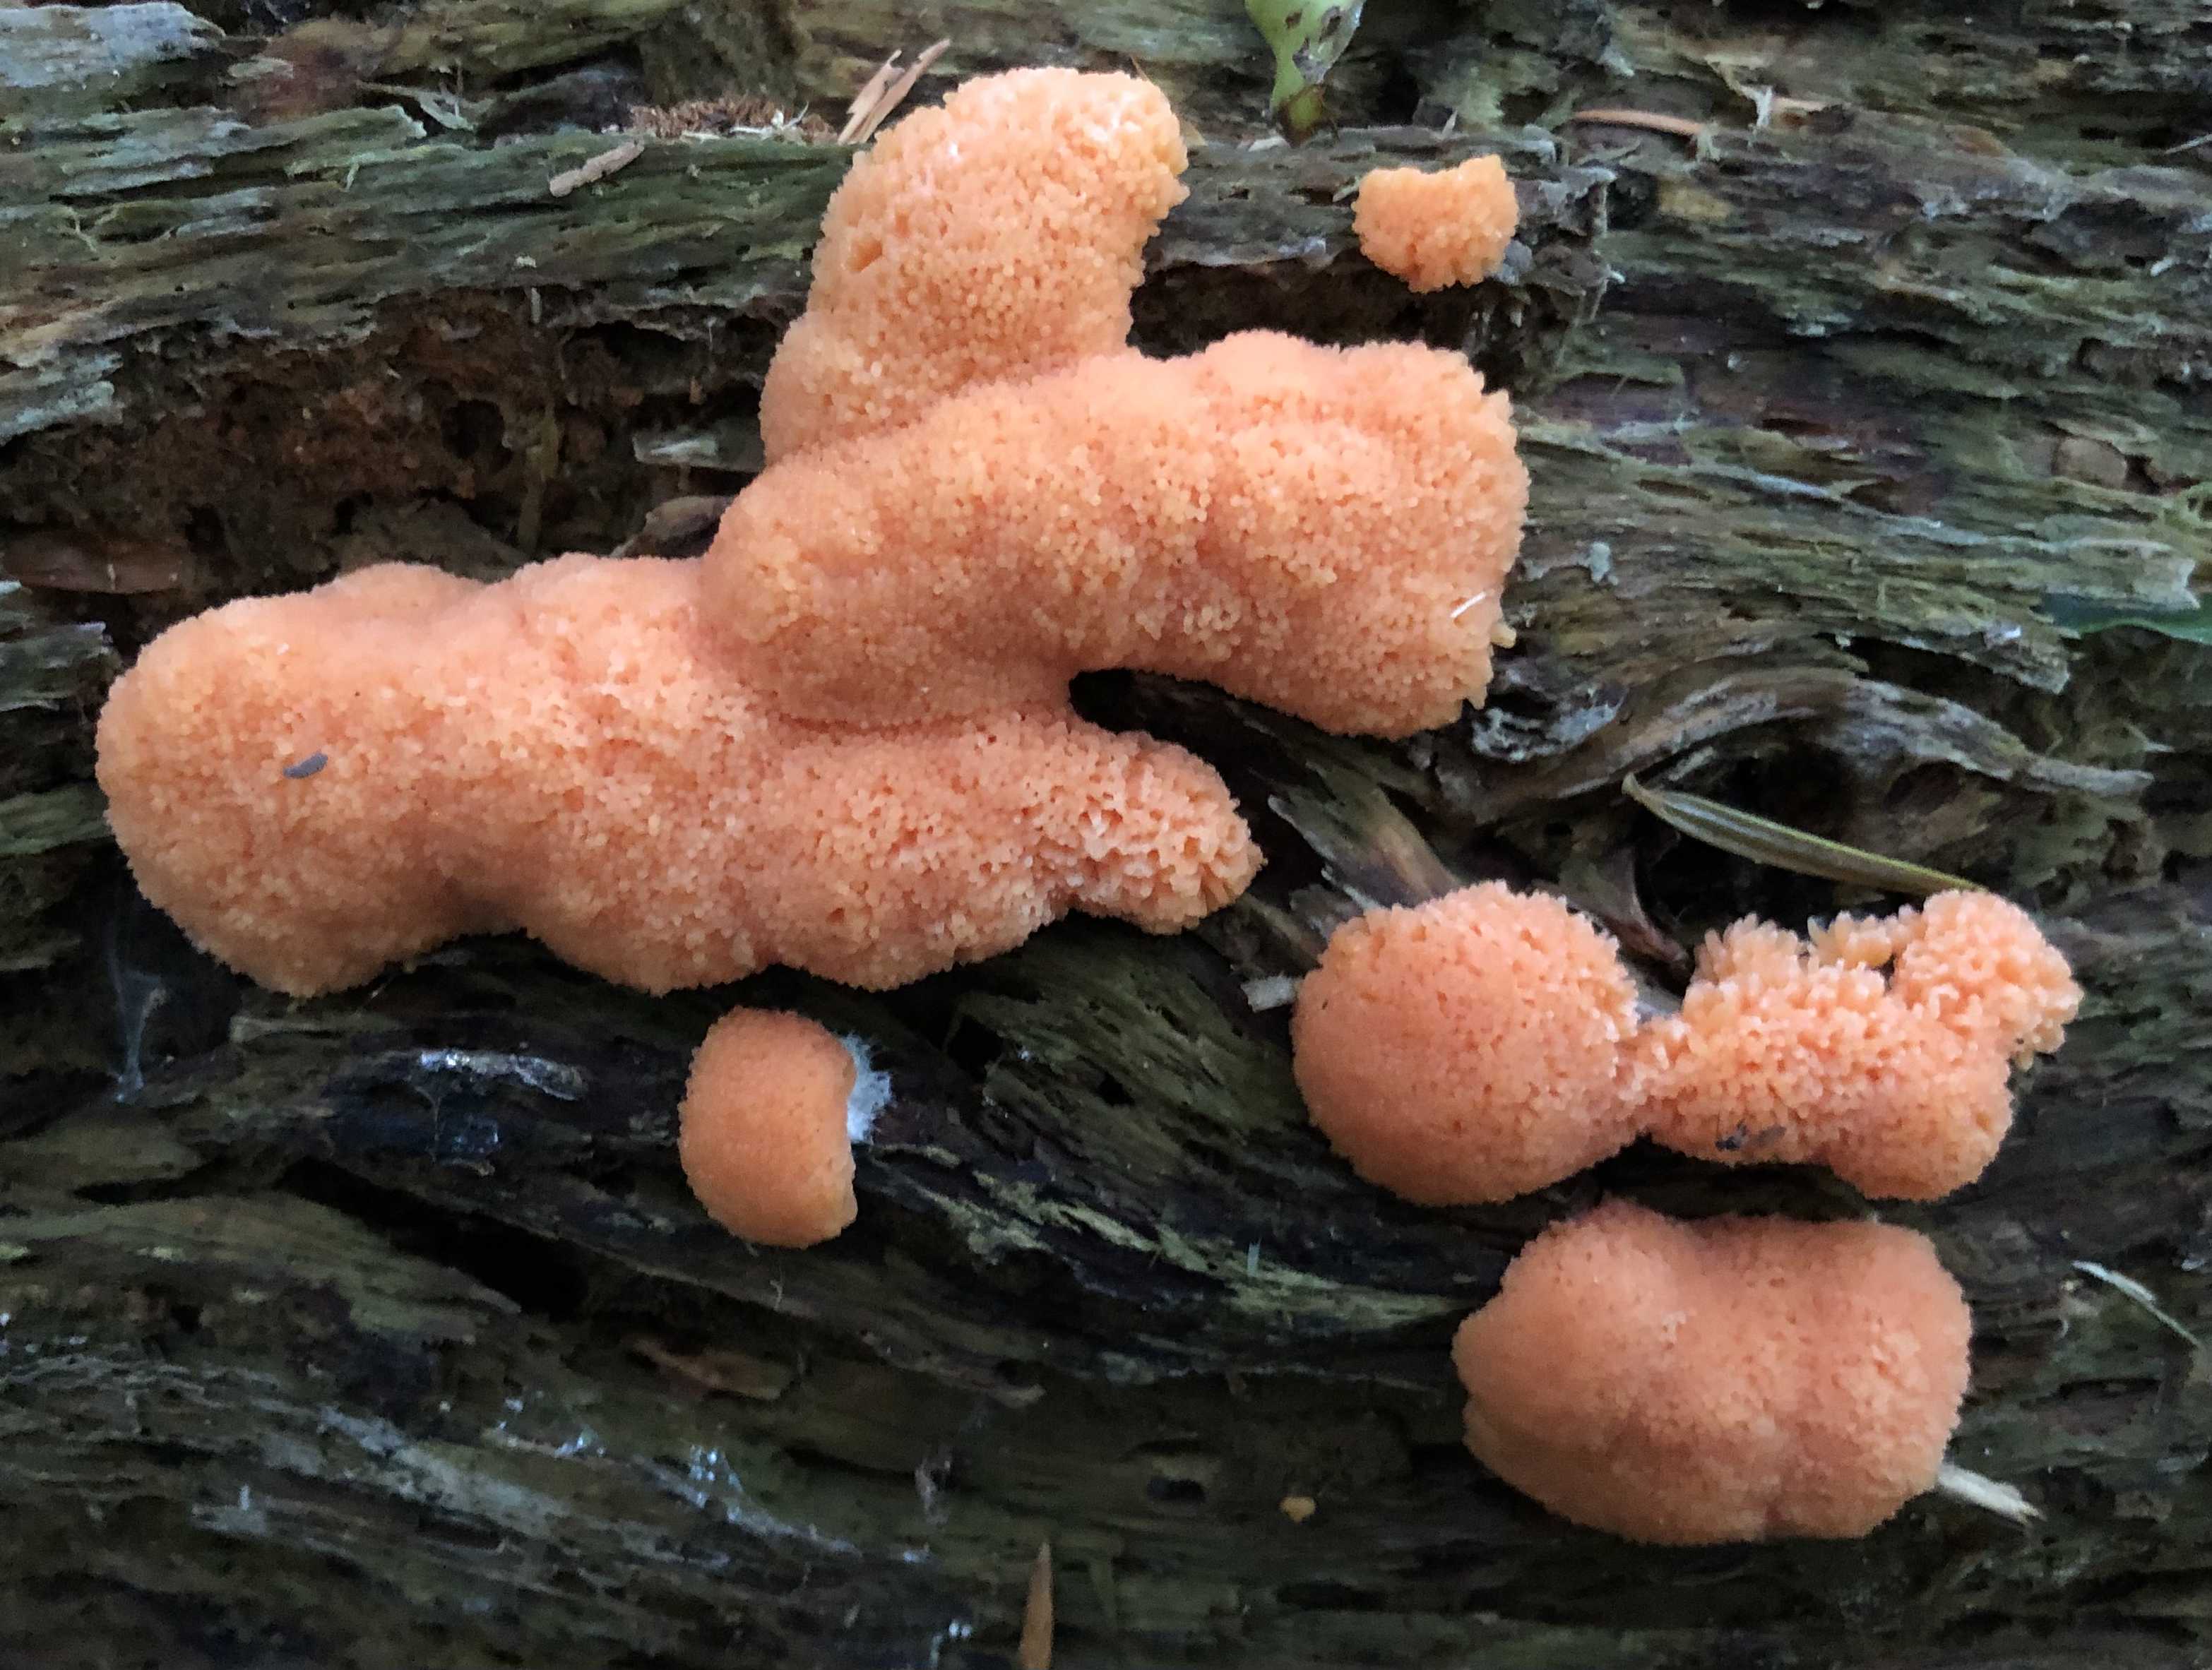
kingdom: Protozoa
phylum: Mycetozoa
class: Myxomycetes
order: Cribrariales
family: Tubiferaceae
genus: Tubifera
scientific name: Tubifera ferruginosa
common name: kanel-støvrør
